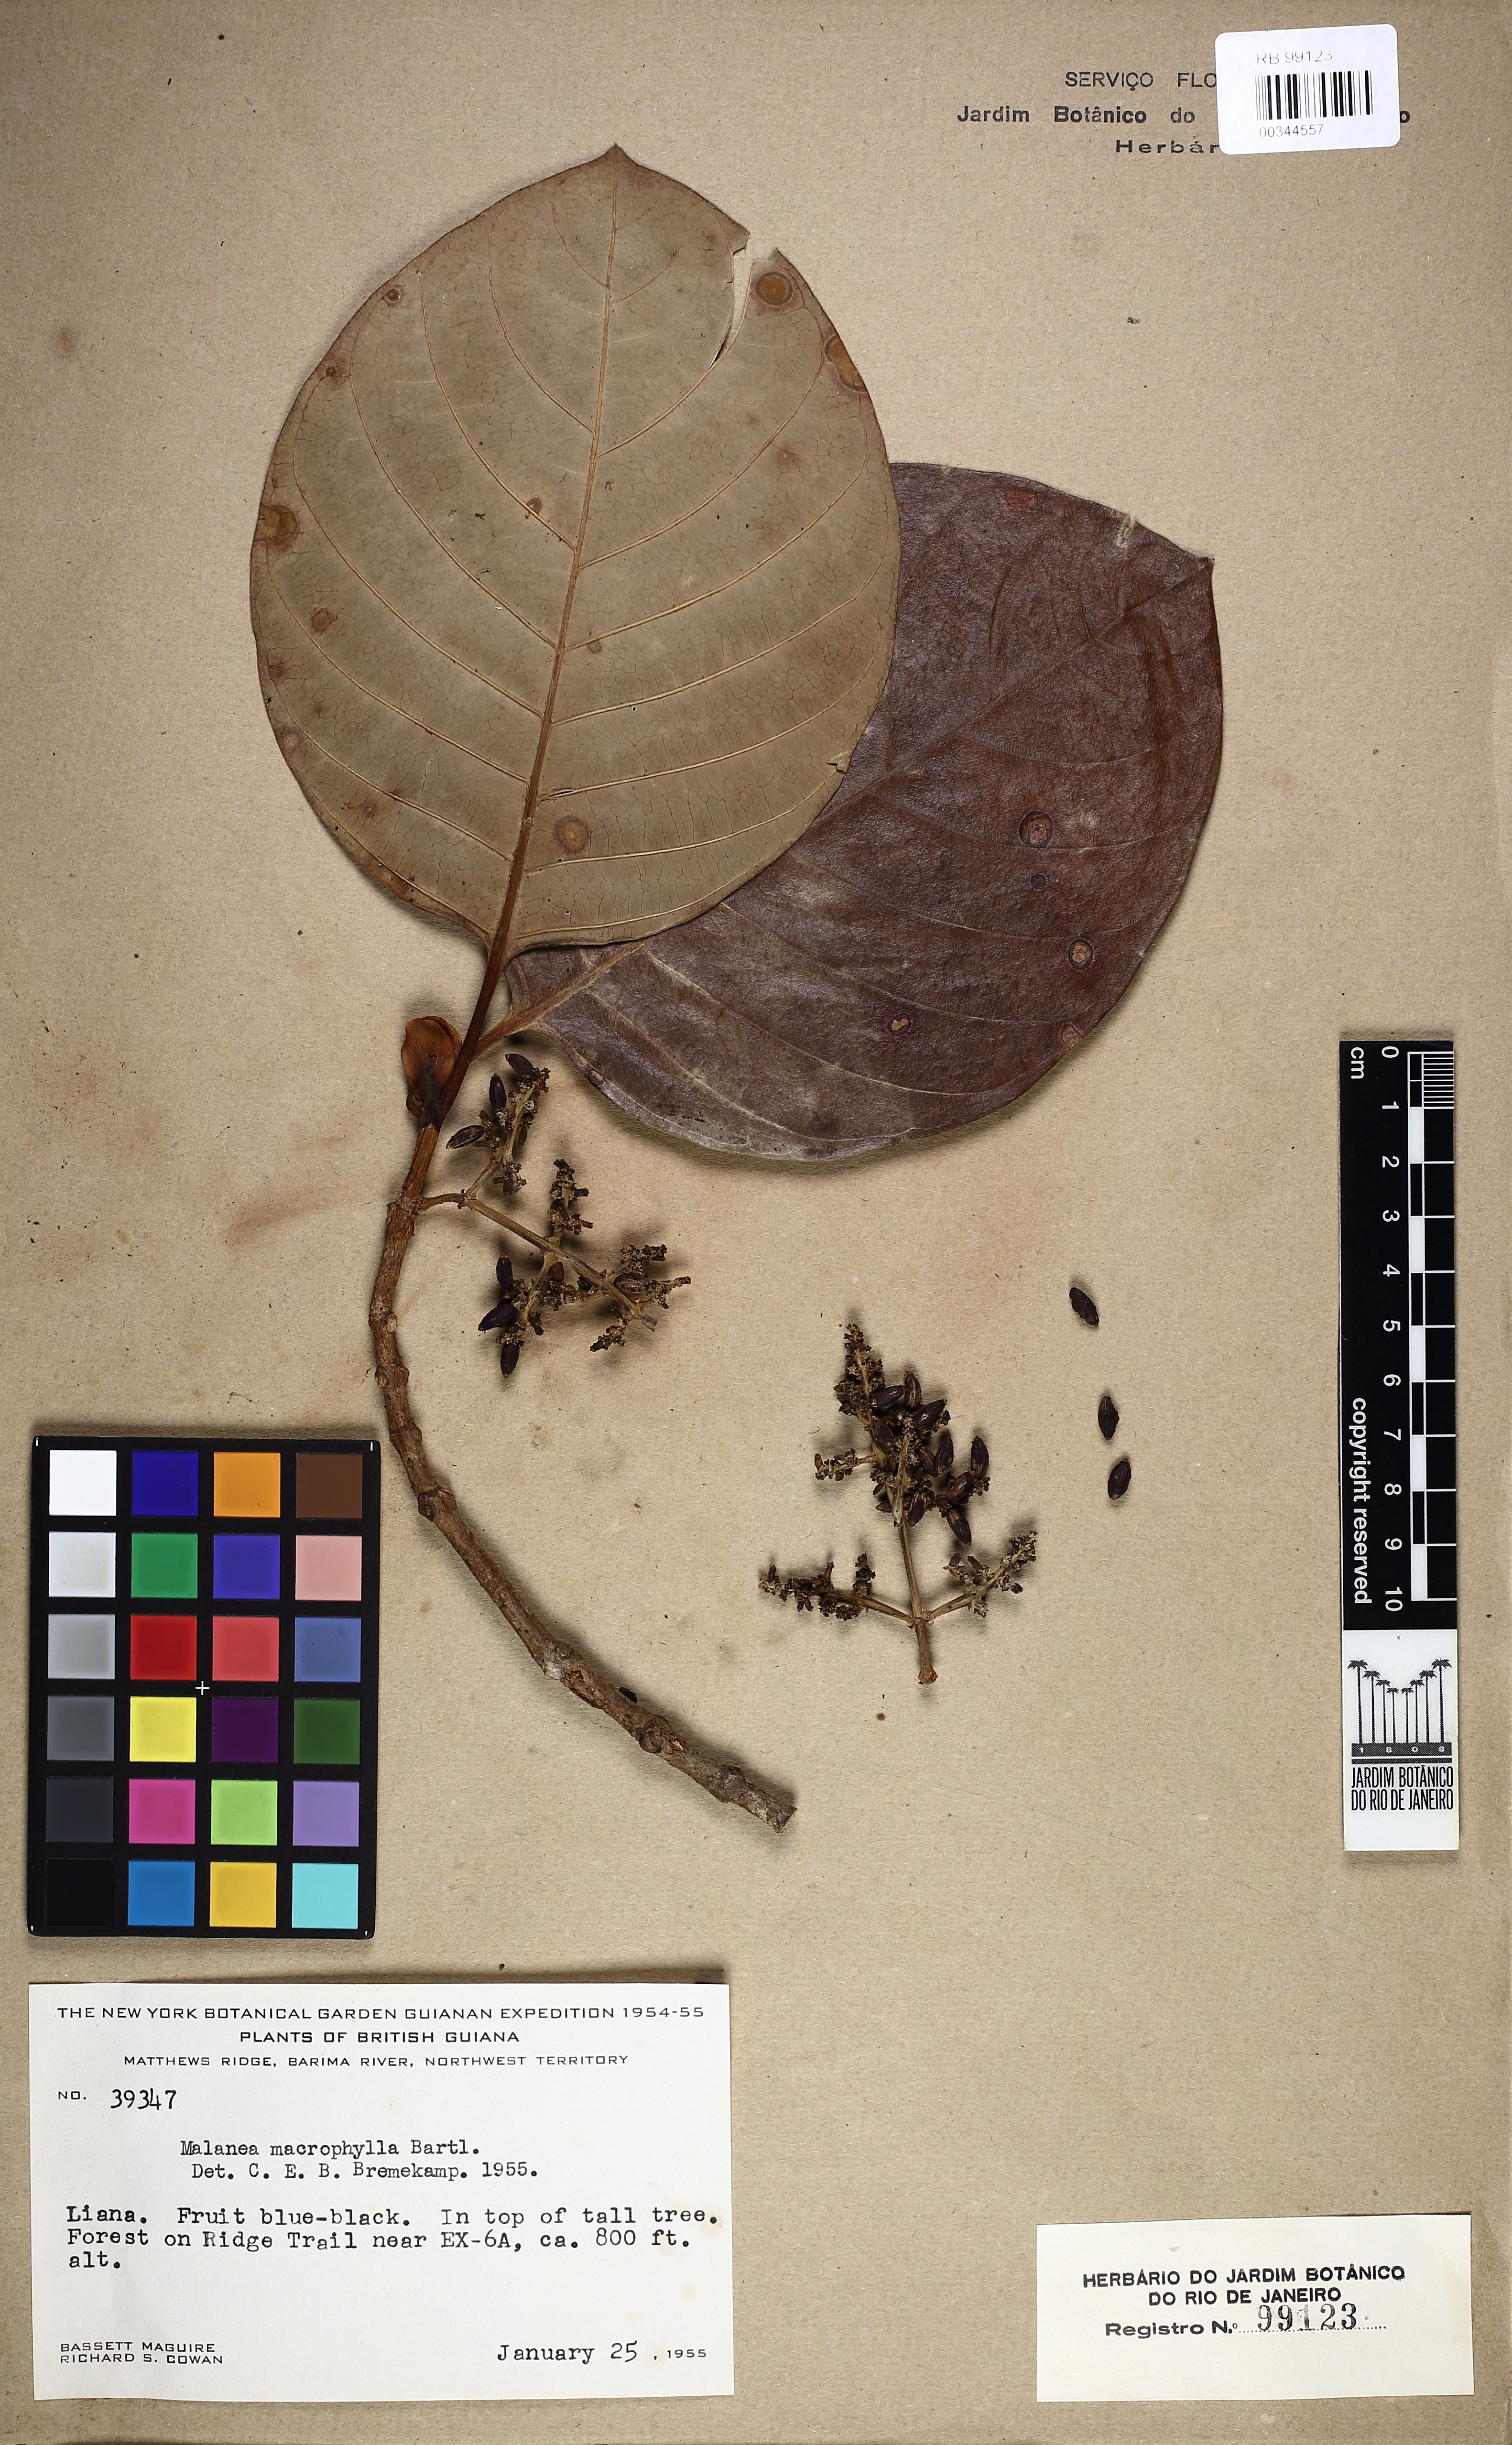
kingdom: Plantae
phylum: Tracheophyta
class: Magnoliopsida
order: Gentianales
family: Rubiaceae
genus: Malanea
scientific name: Malanea glabra
